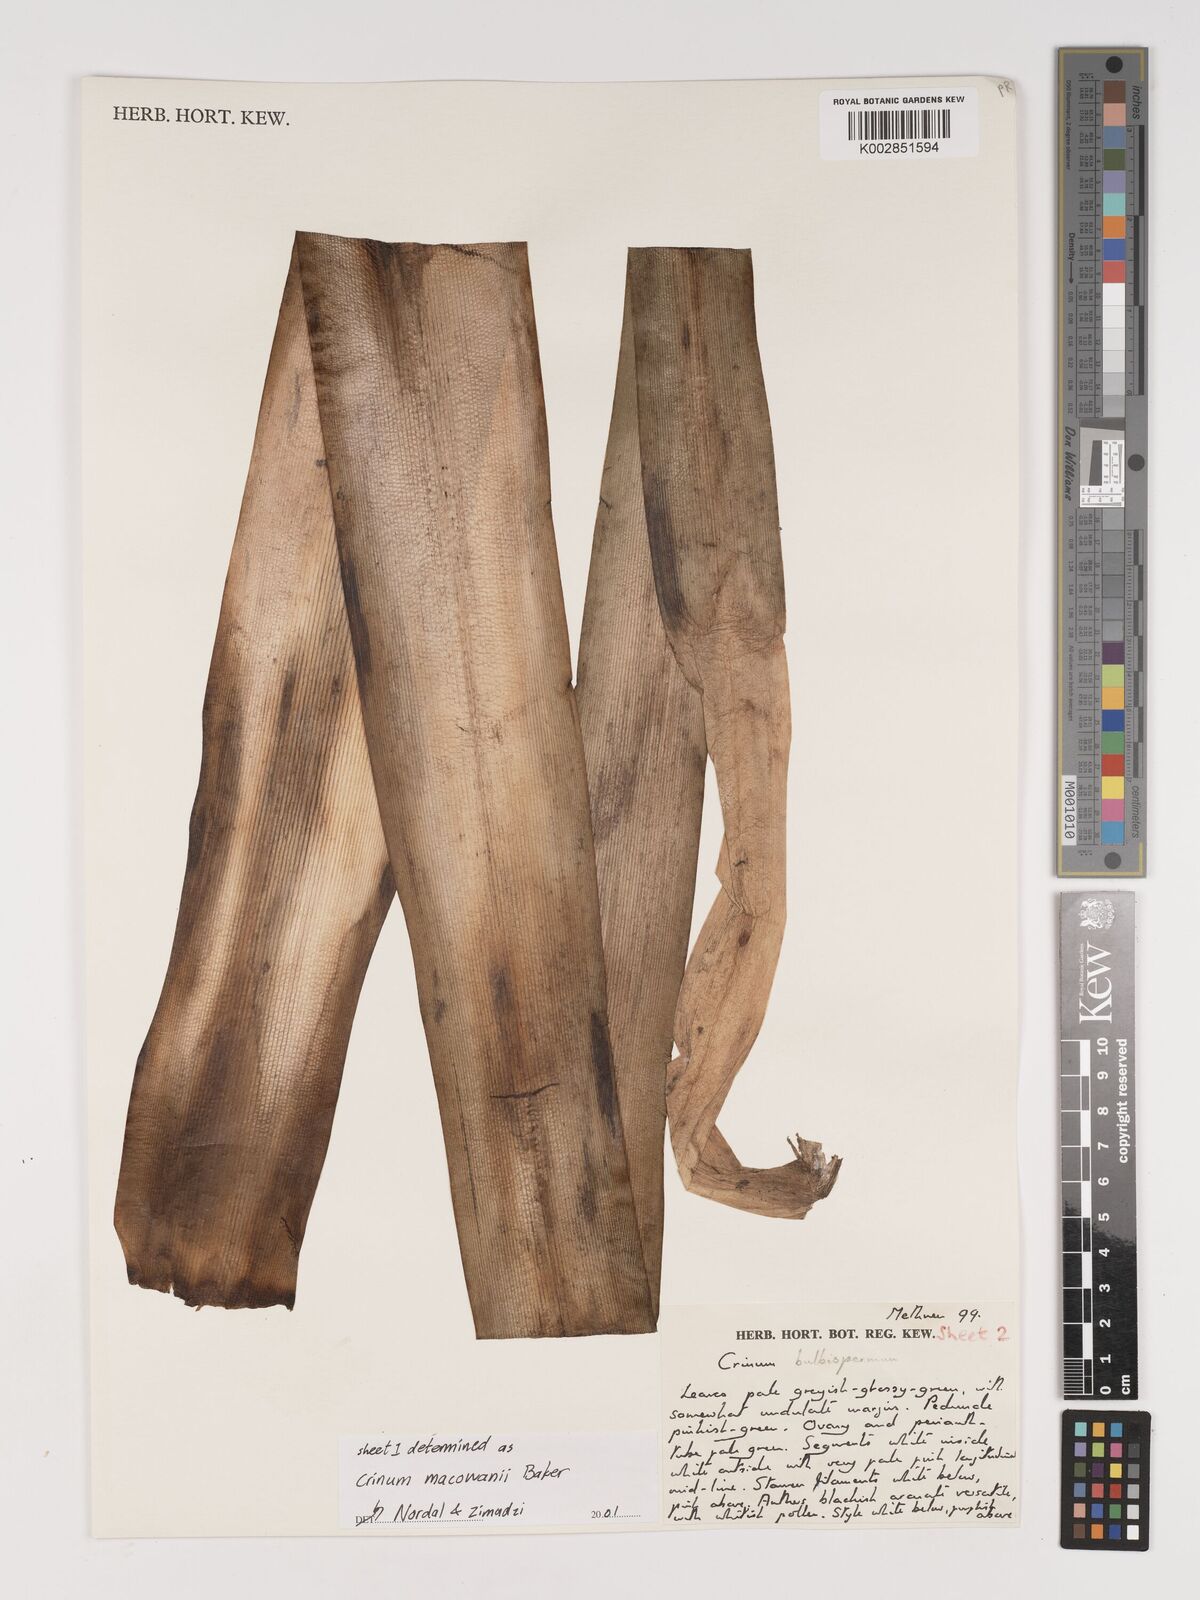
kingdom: Plantae
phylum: Tracheophyta
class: Liliopsida
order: Asparagales
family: Amaryllidaceae
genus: Crinum
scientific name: Crinum macowanii
